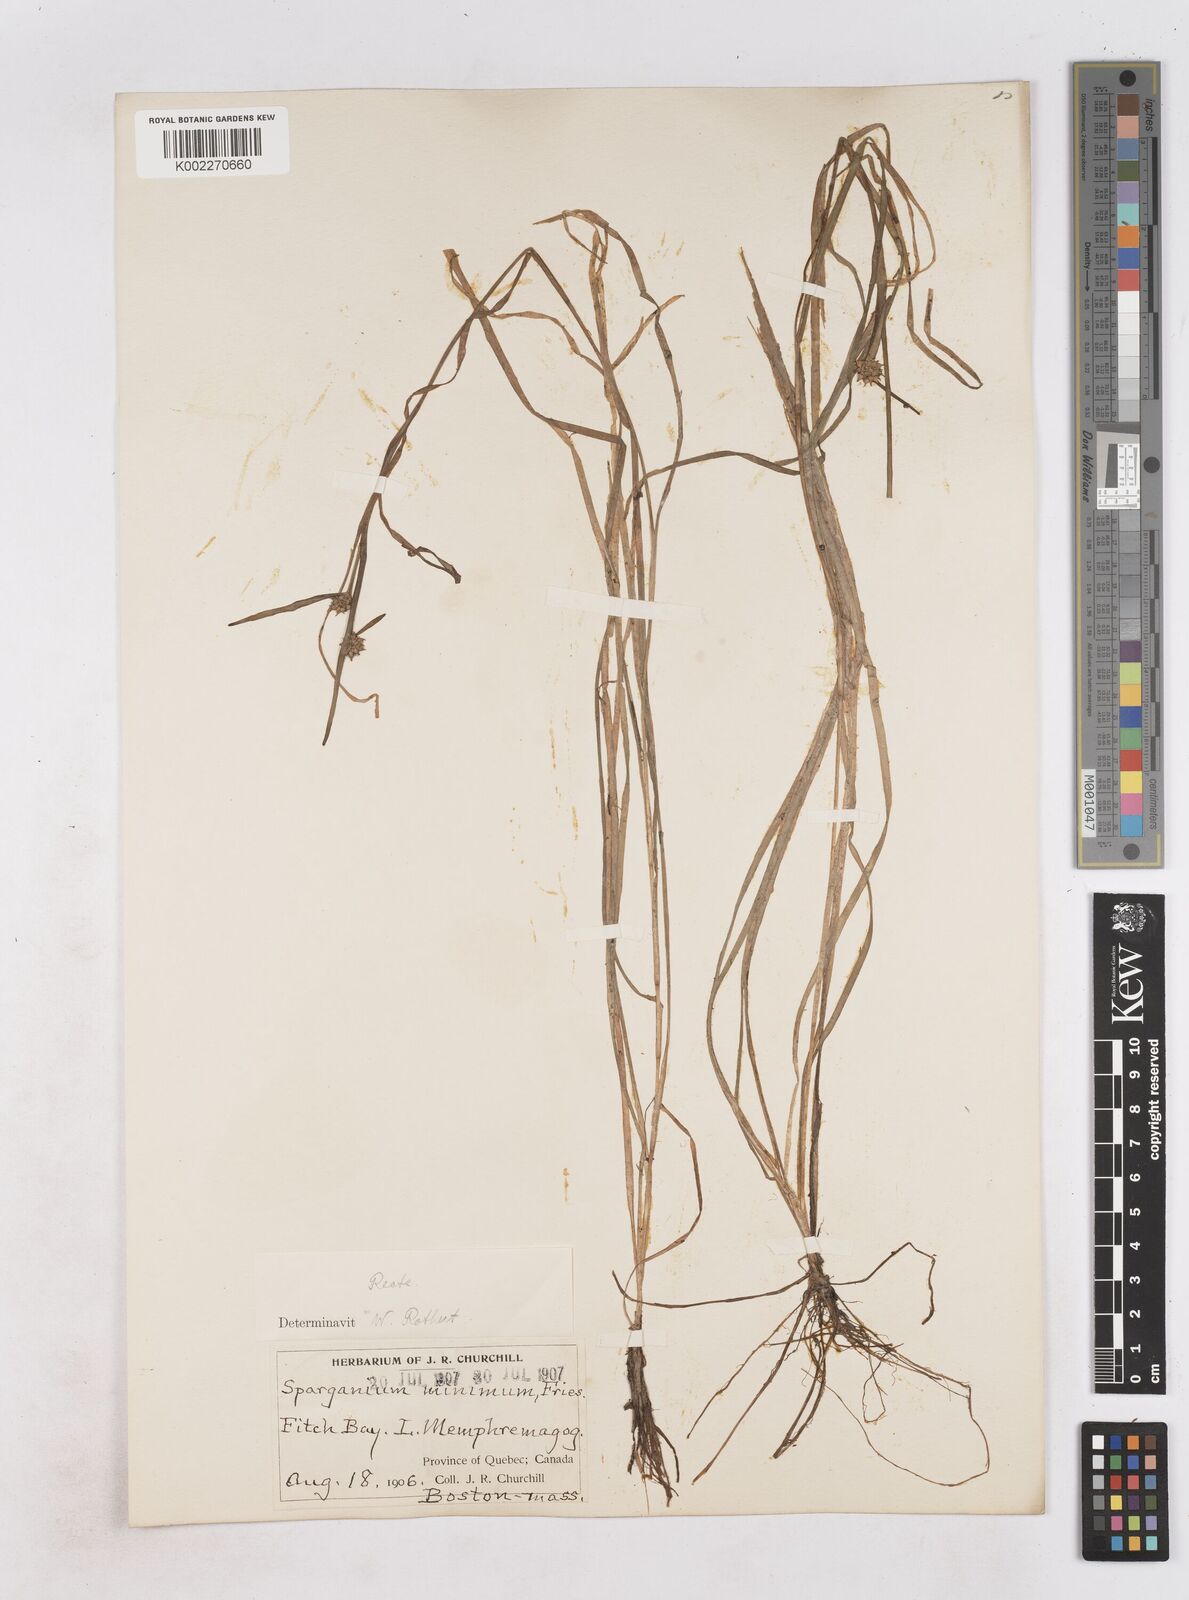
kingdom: Plantae
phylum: Tracheophyta
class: Liliopsida
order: Poales
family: Typhaceae
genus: Sparganium
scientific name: Sparganium natans
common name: Least bur-reed
